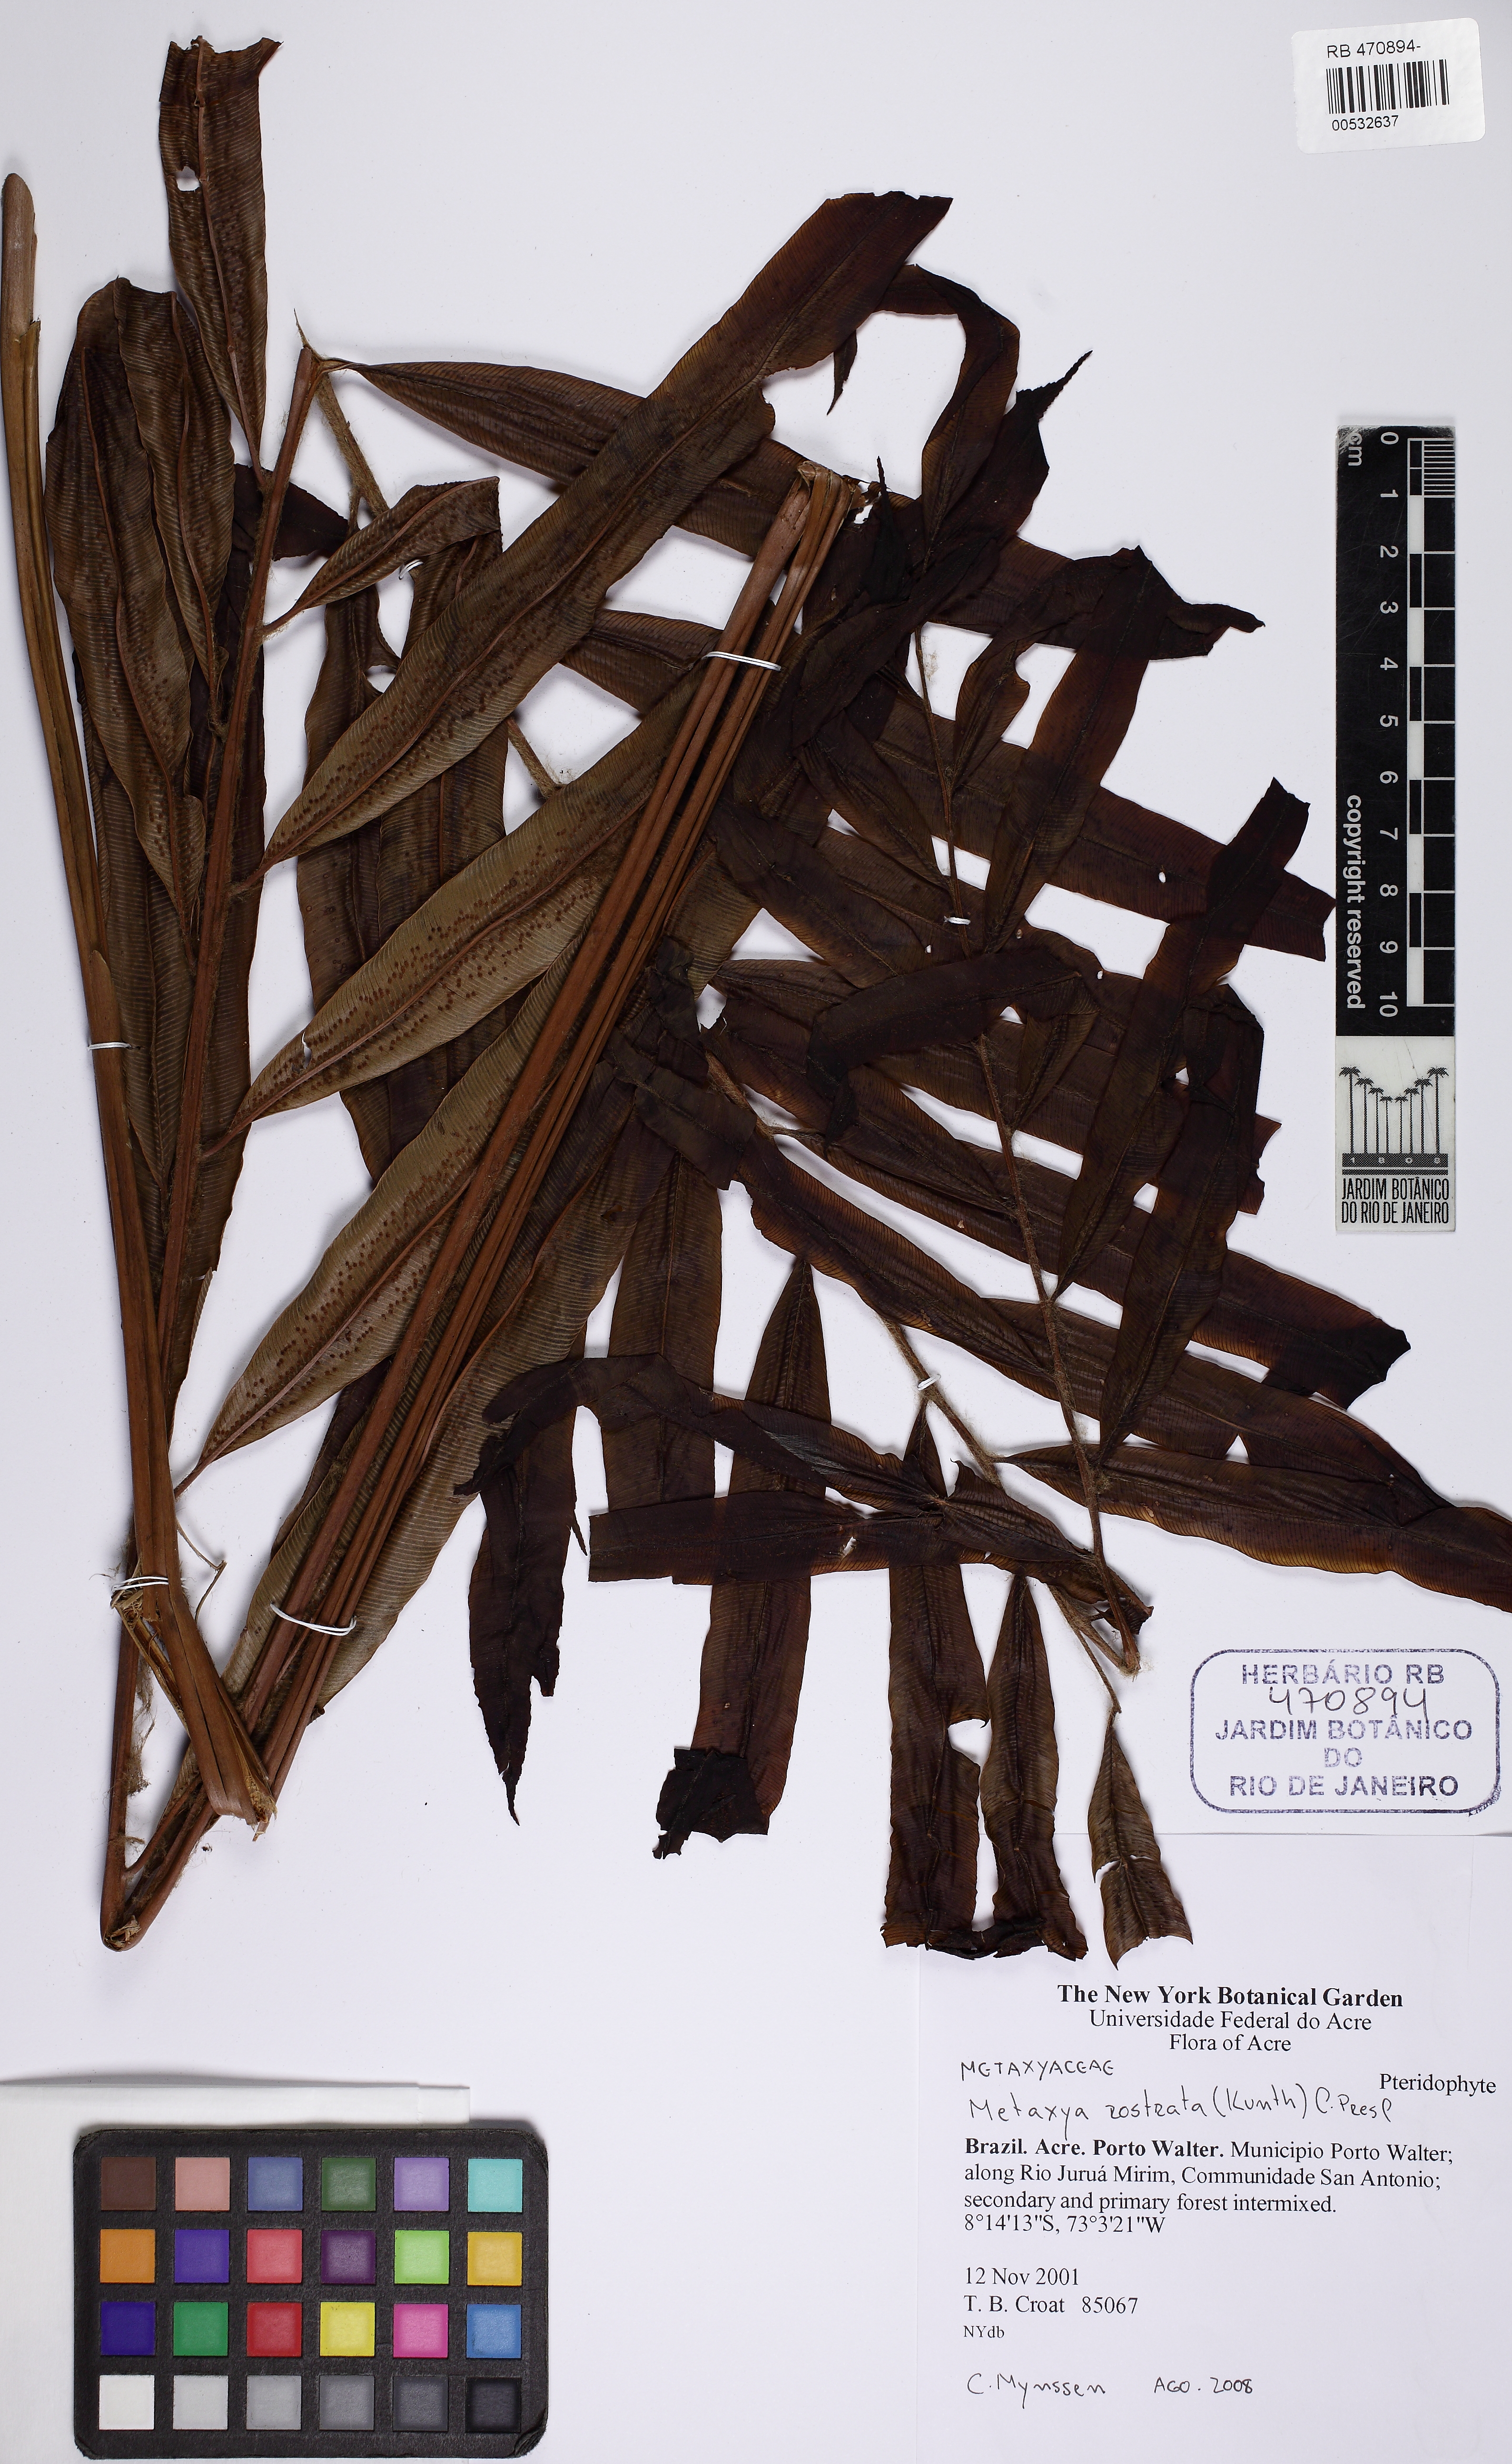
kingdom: Plantae
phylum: Tracheophyta
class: Polypodiopsida
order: Cyatheales
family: Metaxyaceae
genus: Metaxya
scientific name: Metaxya rostrata
